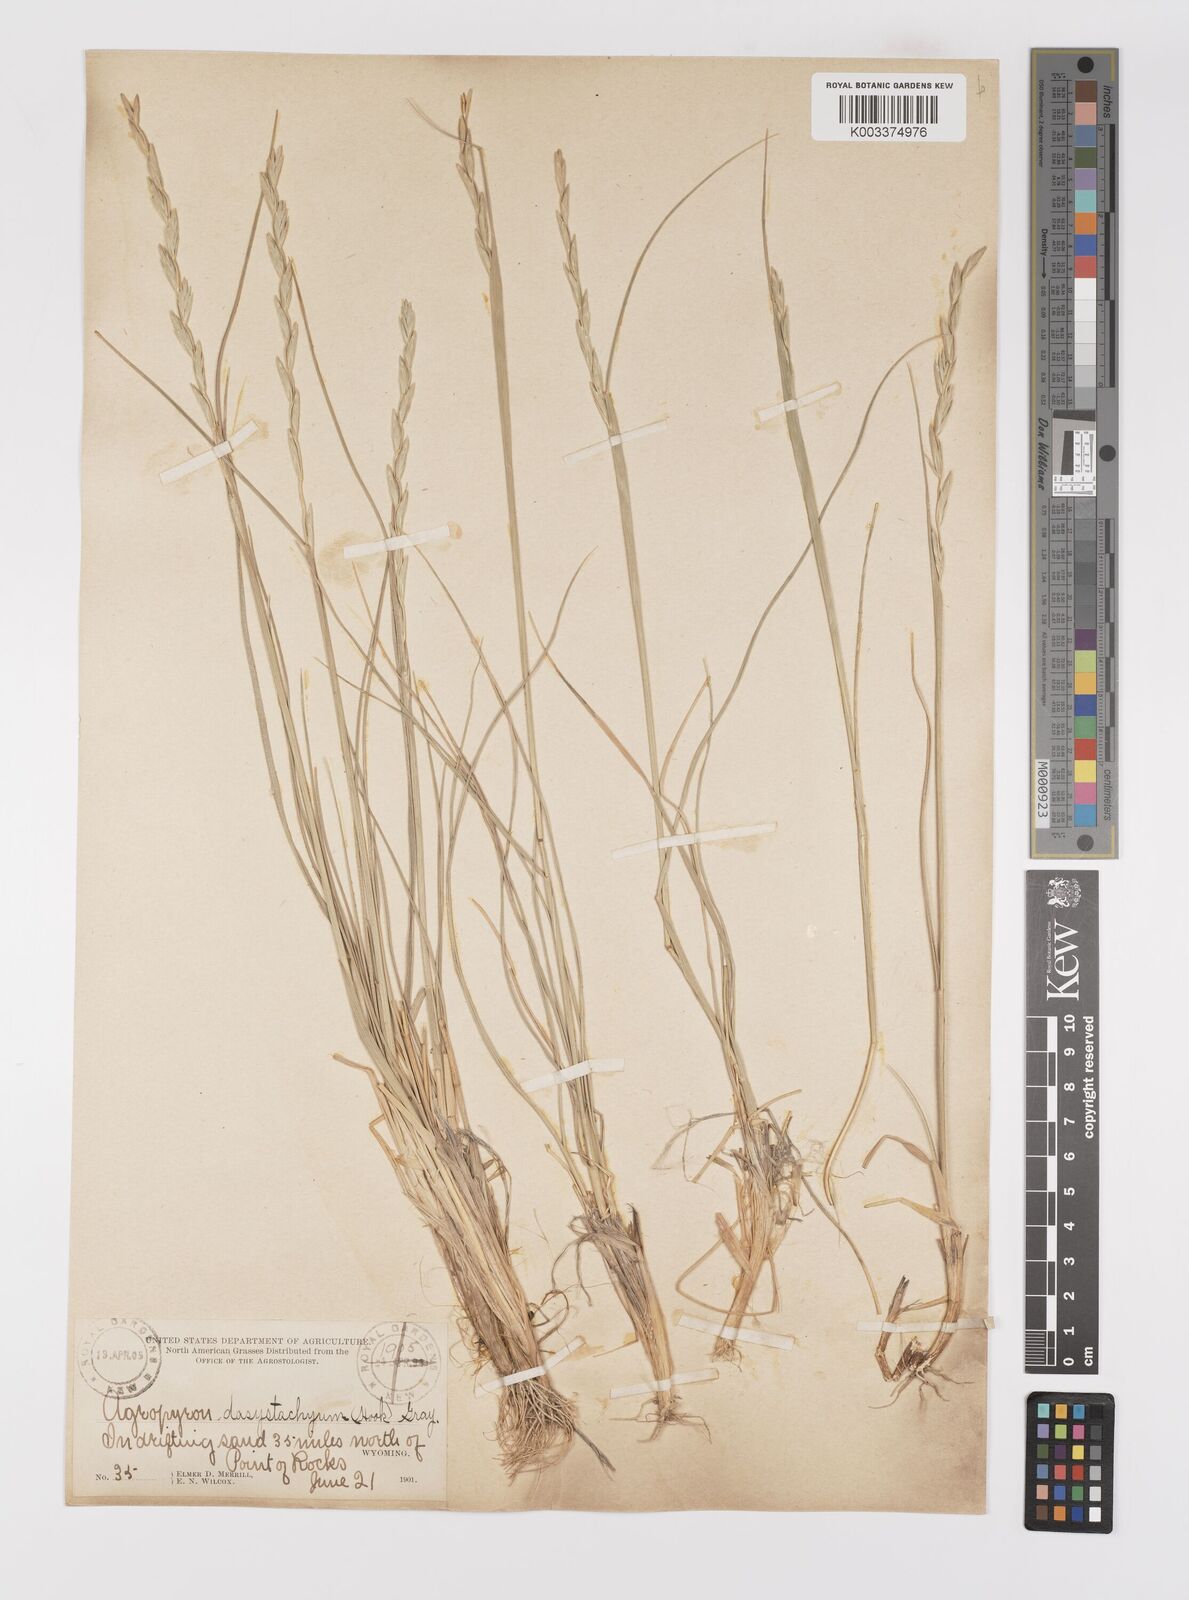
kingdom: Plantae
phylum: Tracheophyta
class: Liliopsida
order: Poales
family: Poaceae
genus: Elymus
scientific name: Elymus lanceolatus
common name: Thick-spike wheatgrass
